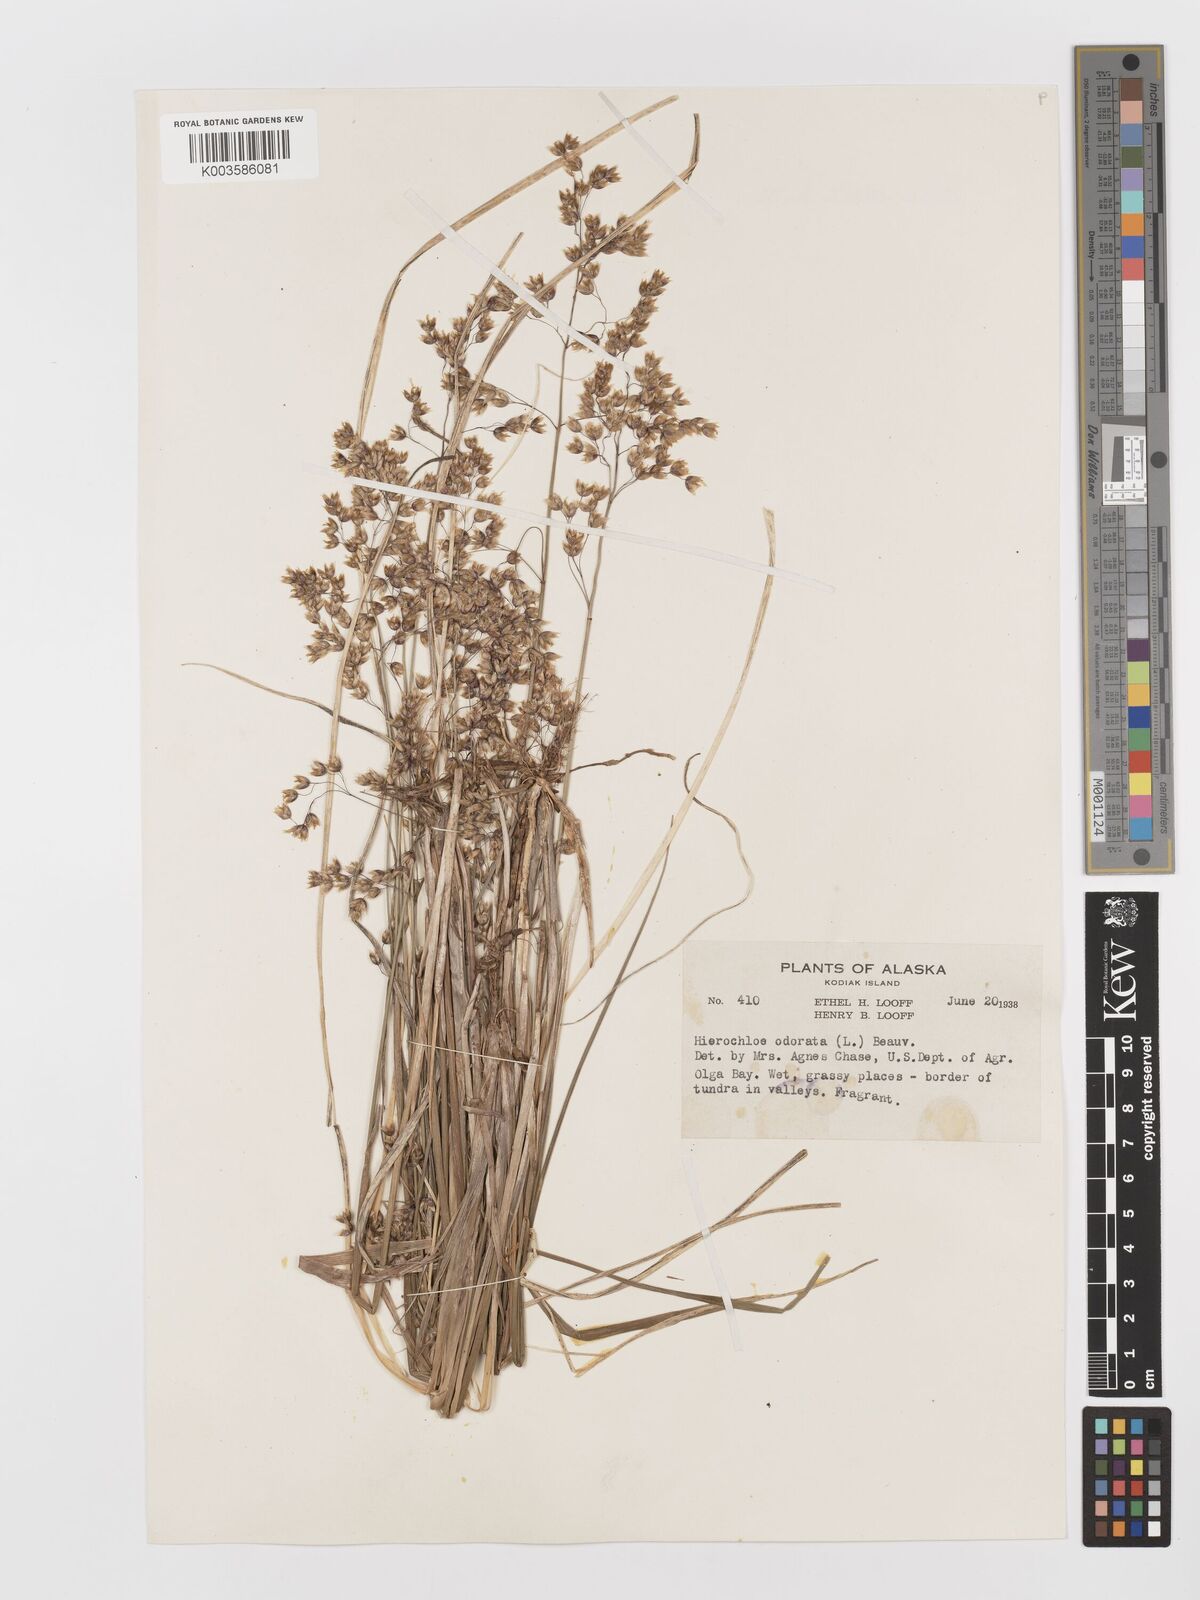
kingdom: Plantae
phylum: Tracheophyta
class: Liliopsida
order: Poales
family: Poaceae
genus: Anthoxanthum
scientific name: Anthoxanthum nitens
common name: Holy grass
